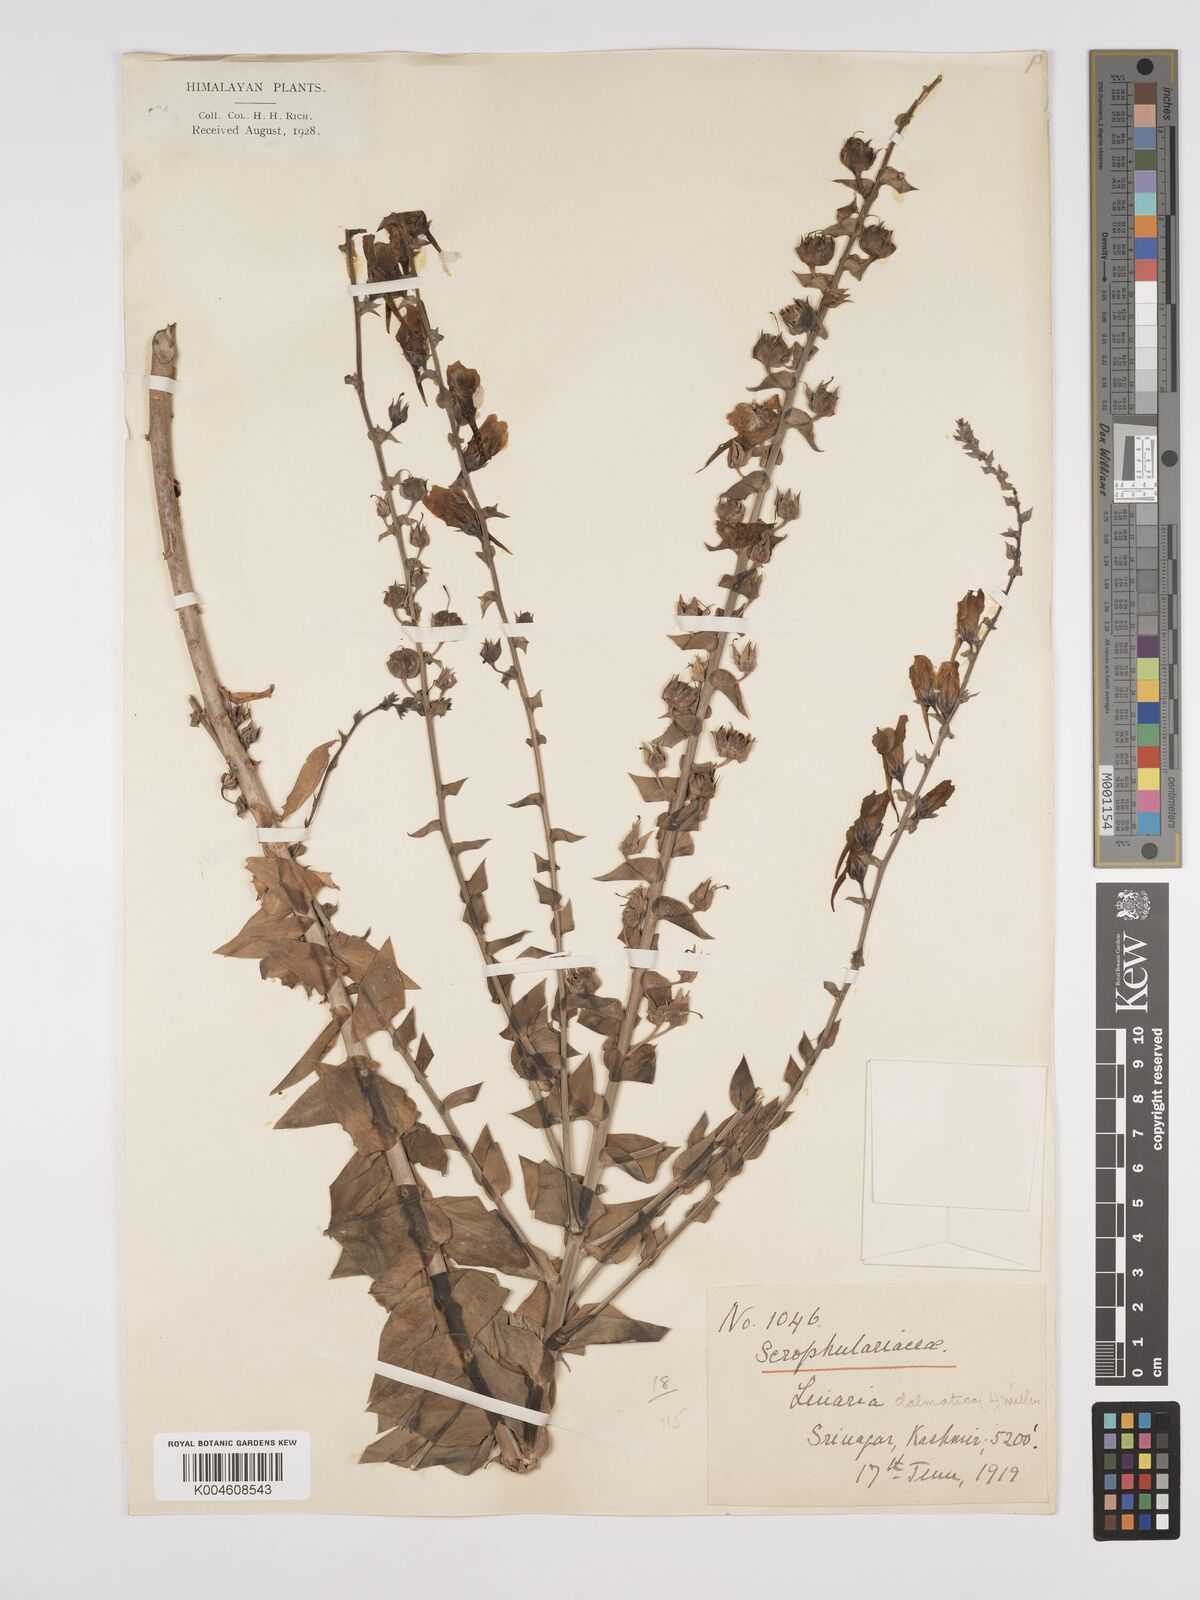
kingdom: Plantae
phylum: Tracheophyta
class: Magnoliopsida
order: Lamiales
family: Plantaginaceae
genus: Kickxia
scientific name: Kickxia
